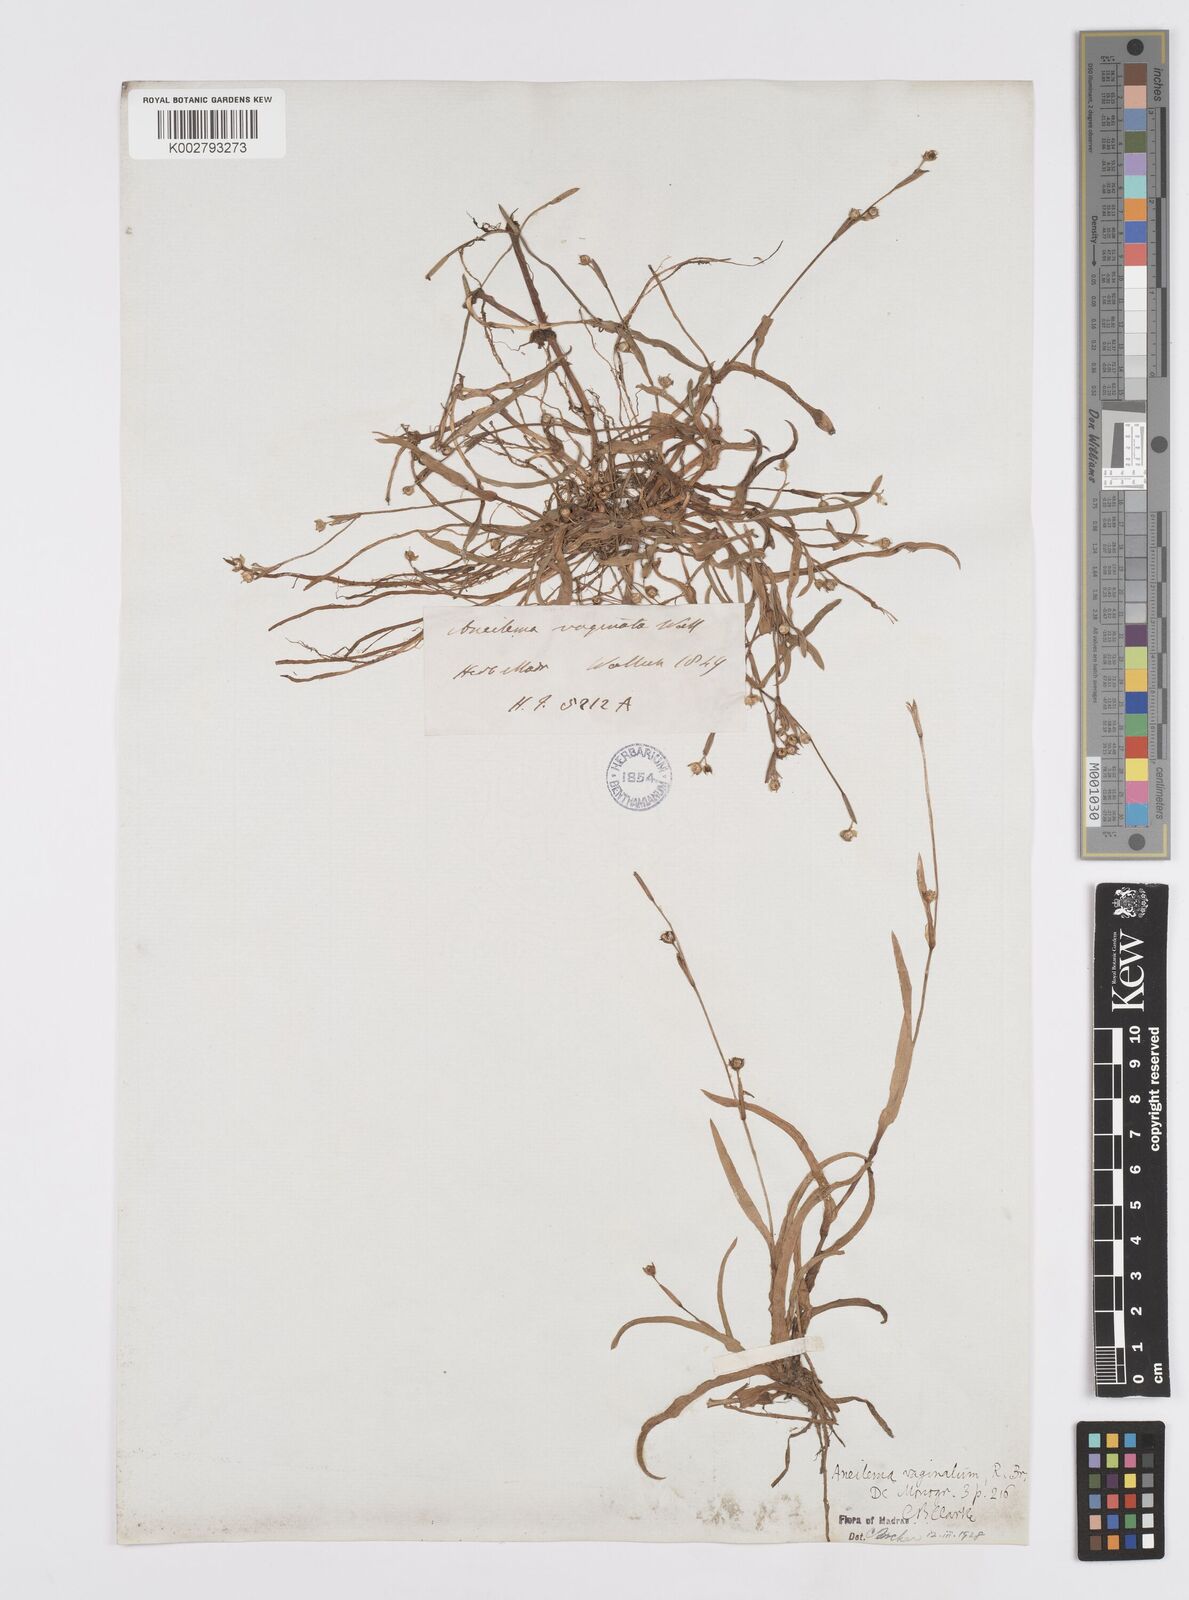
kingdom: Plantae
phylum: Tracheophyta
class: Liliopsida
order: Commelinales
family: Commelinaceae
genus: Murdannia
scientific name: Murdannia vaginata
